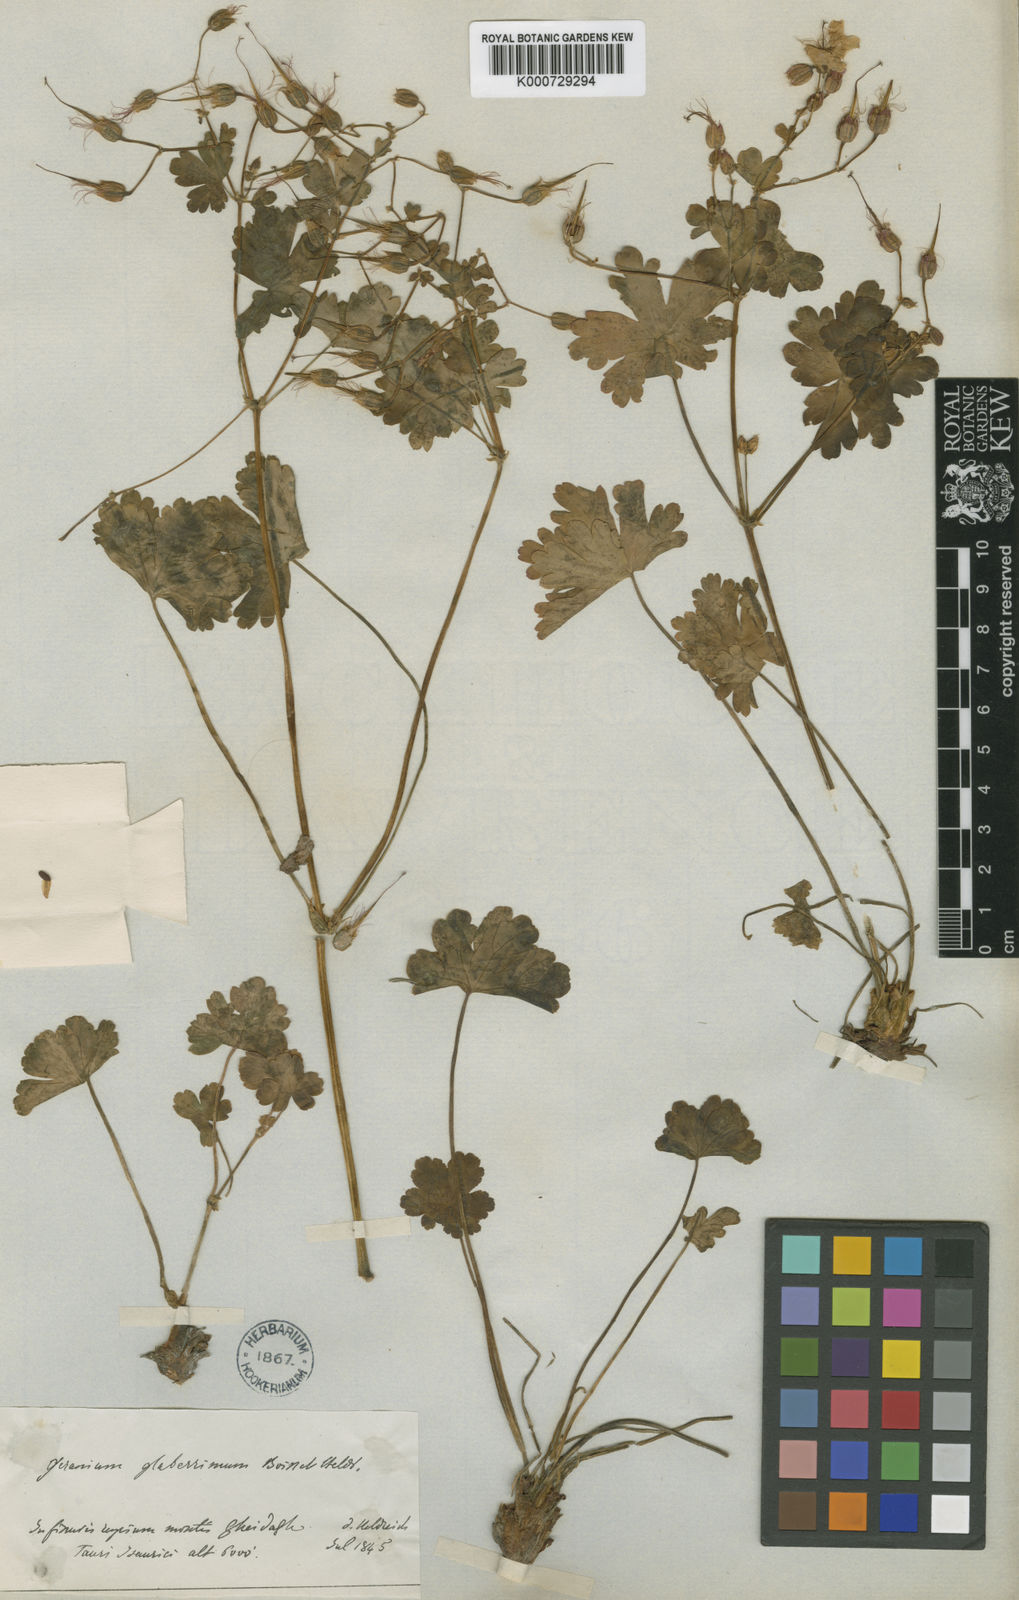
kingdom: Plantae
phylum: Tracheophyta
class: Magnoliopsida
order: Geraniales
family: Geraniaceae
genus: Geranium
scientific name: Geranium glaberrimum
